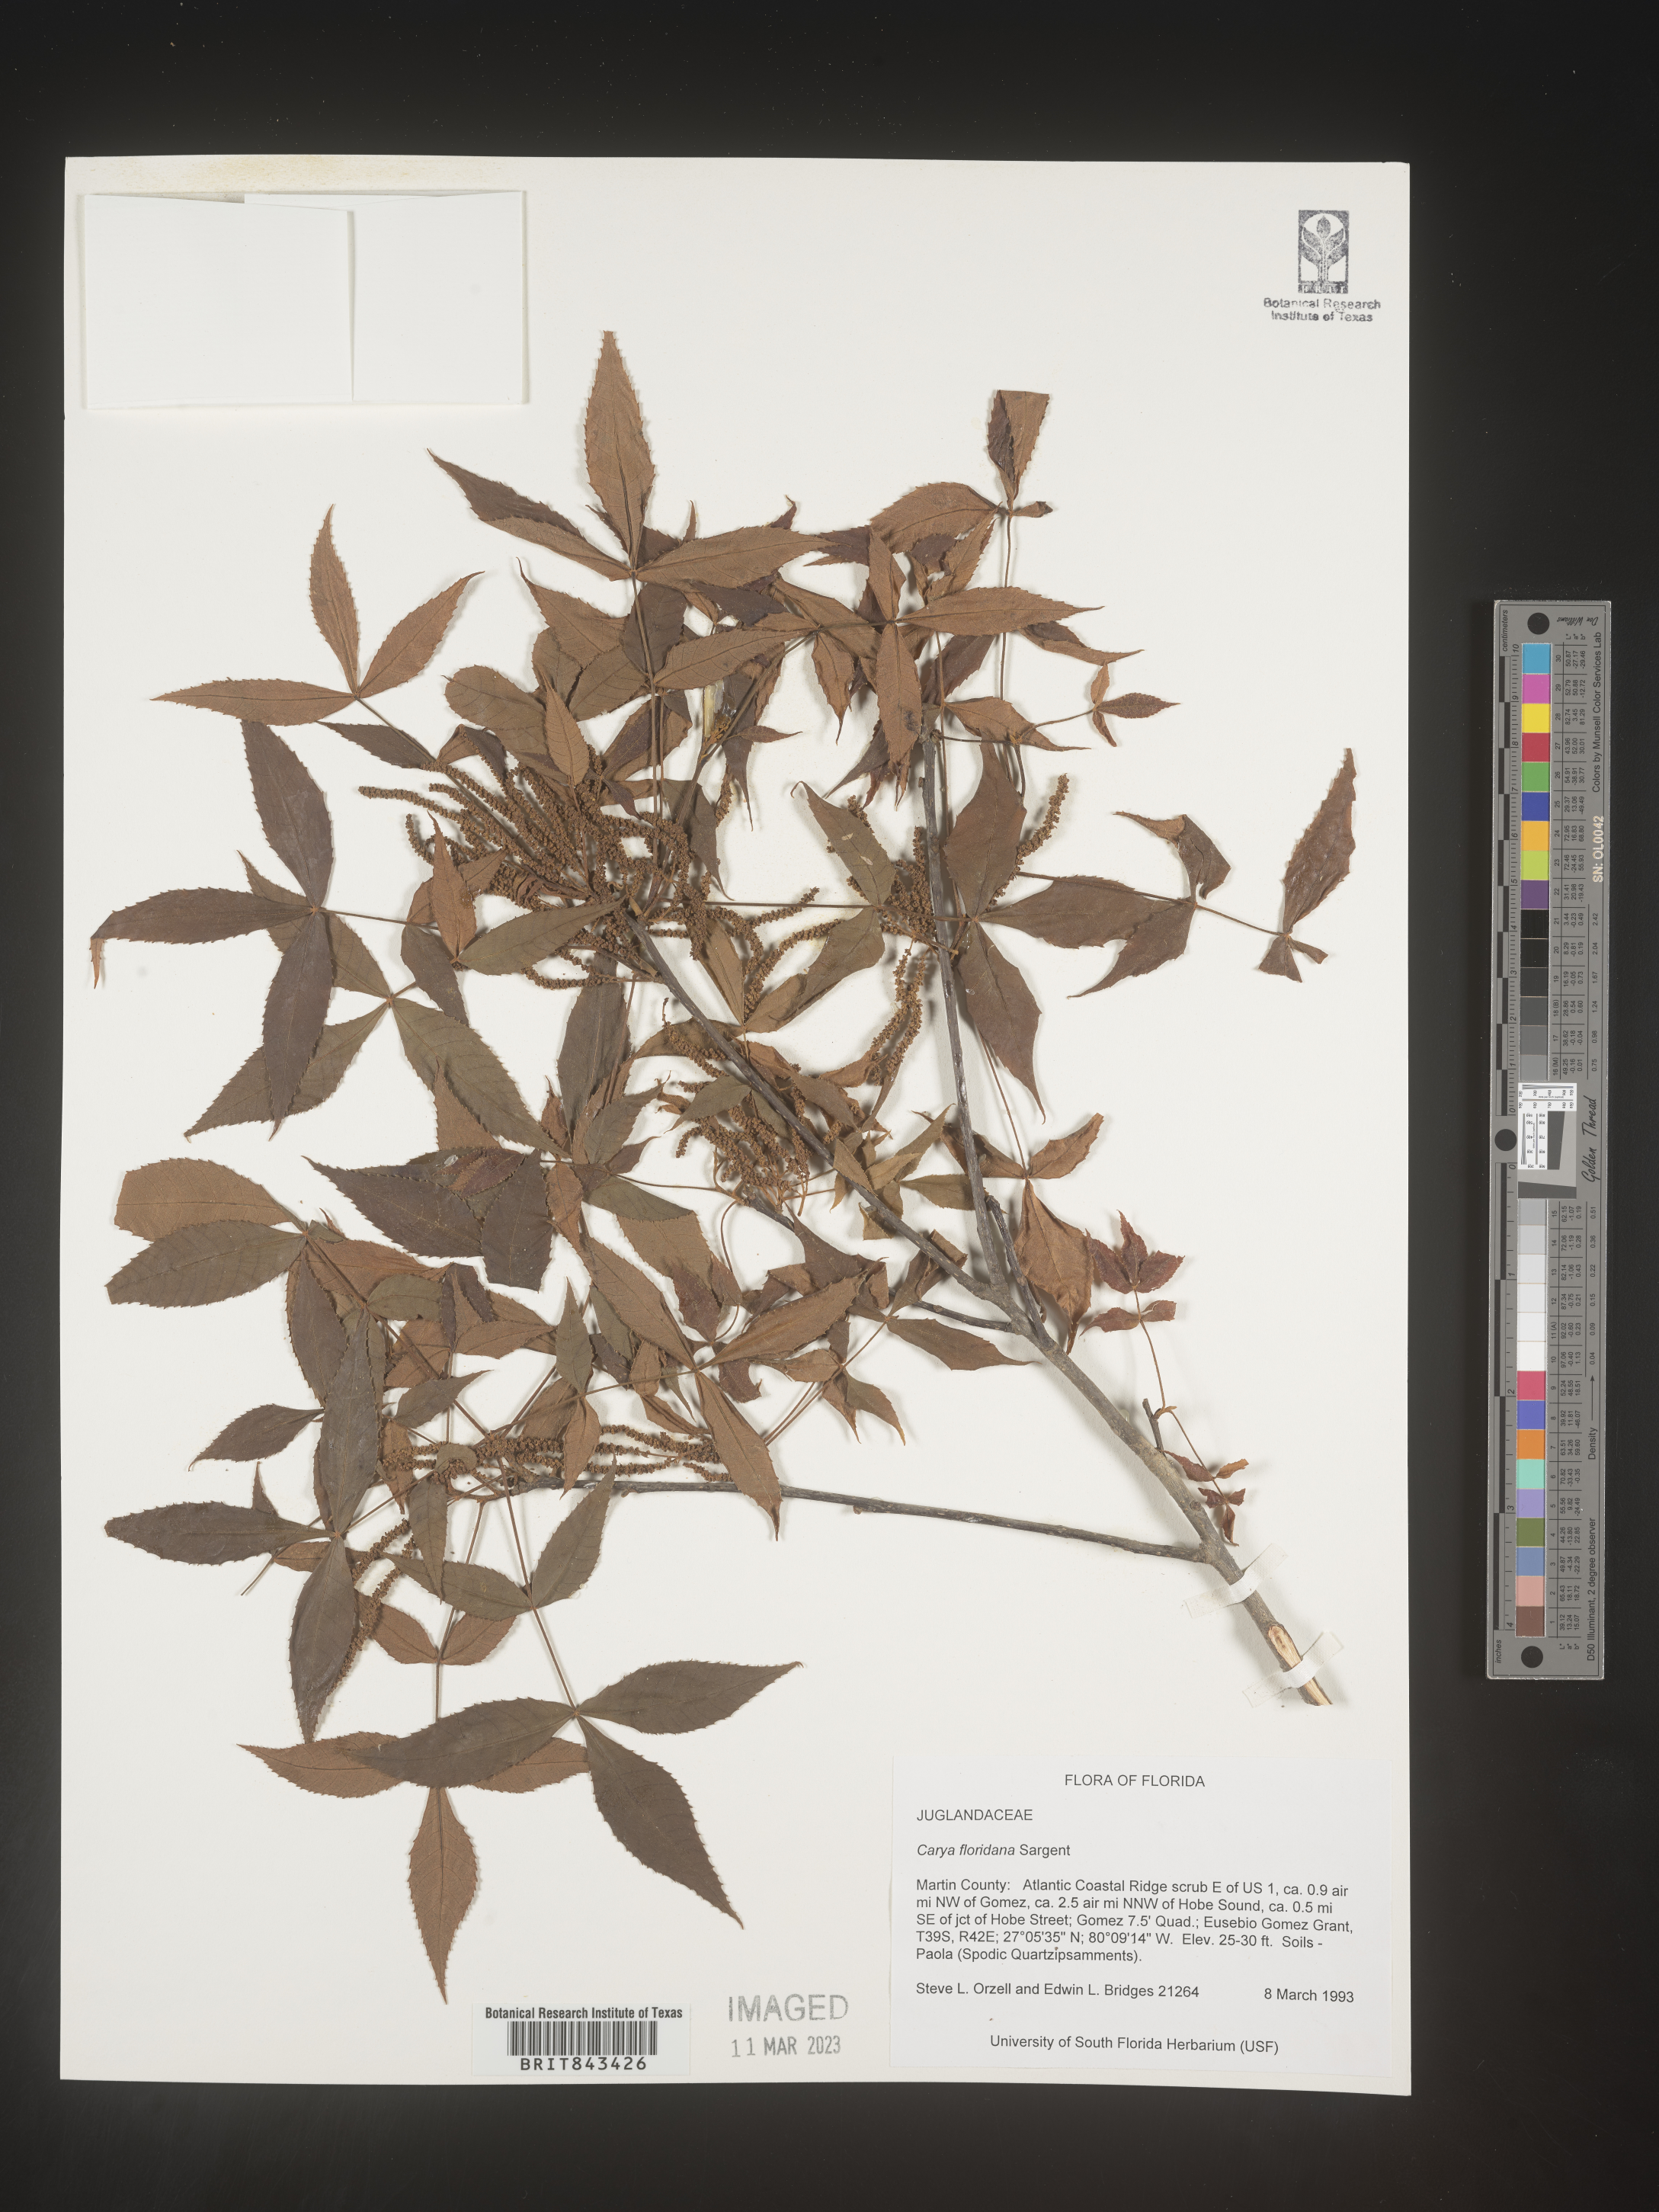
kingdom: Plantae
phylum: Tracheophyta
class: Magnoliopsida
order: Fagales
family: Juglandaceae
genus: Carya
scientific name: Carya glabra
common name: Pignut hickory
